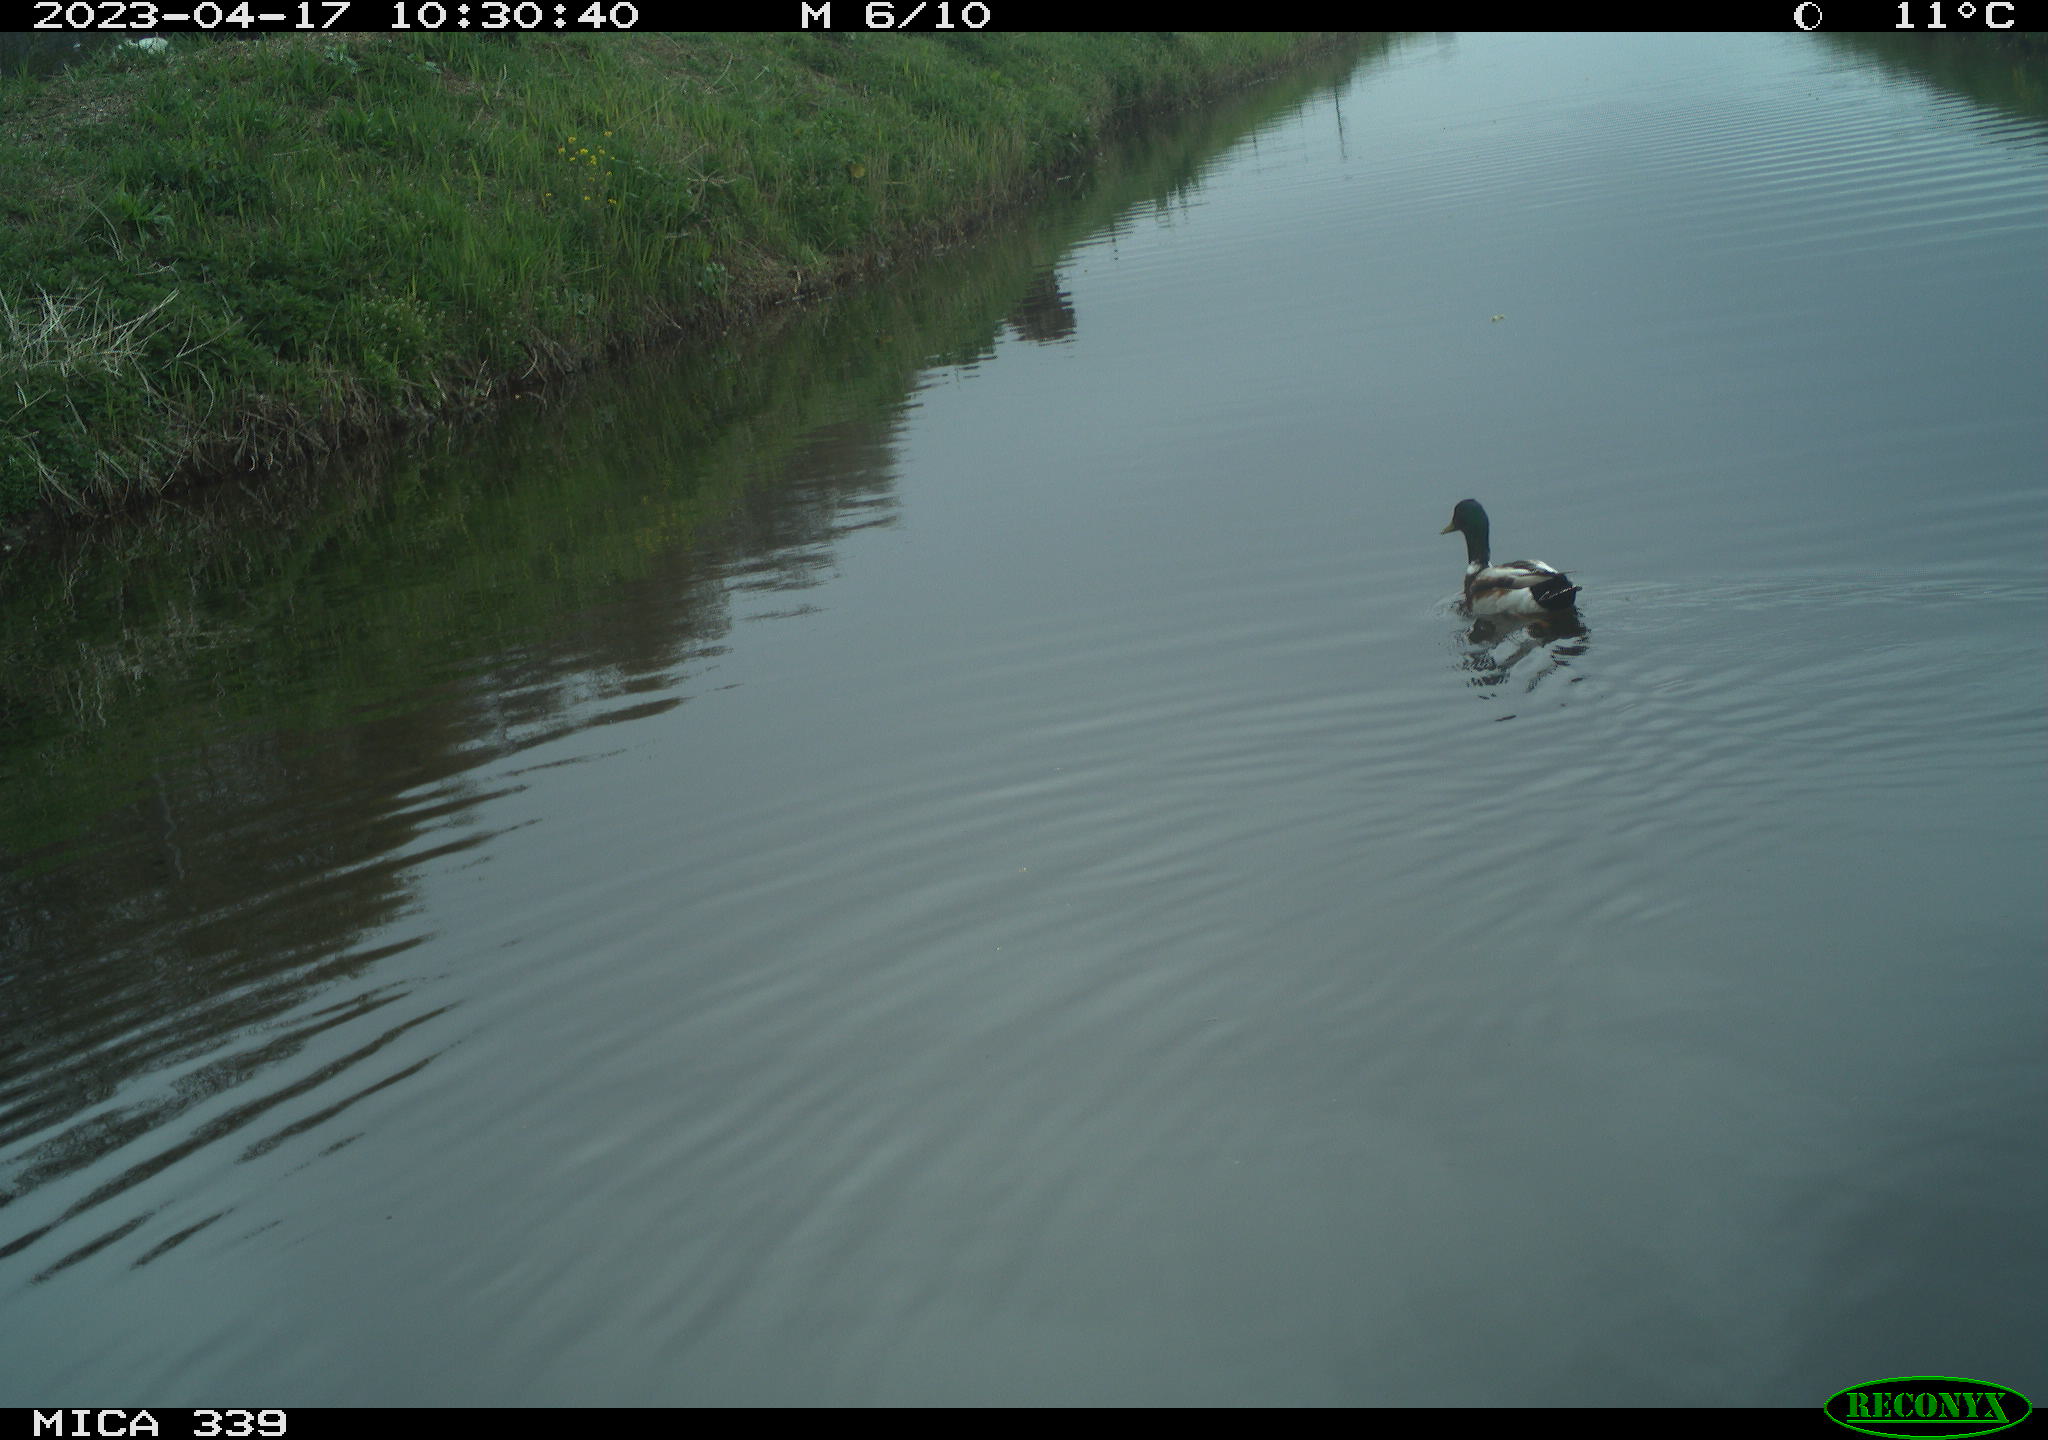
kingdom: Animalia
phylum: Chordata
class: Aves
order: Anseriformes
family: Anatidae
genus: Anas
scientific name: Anas
